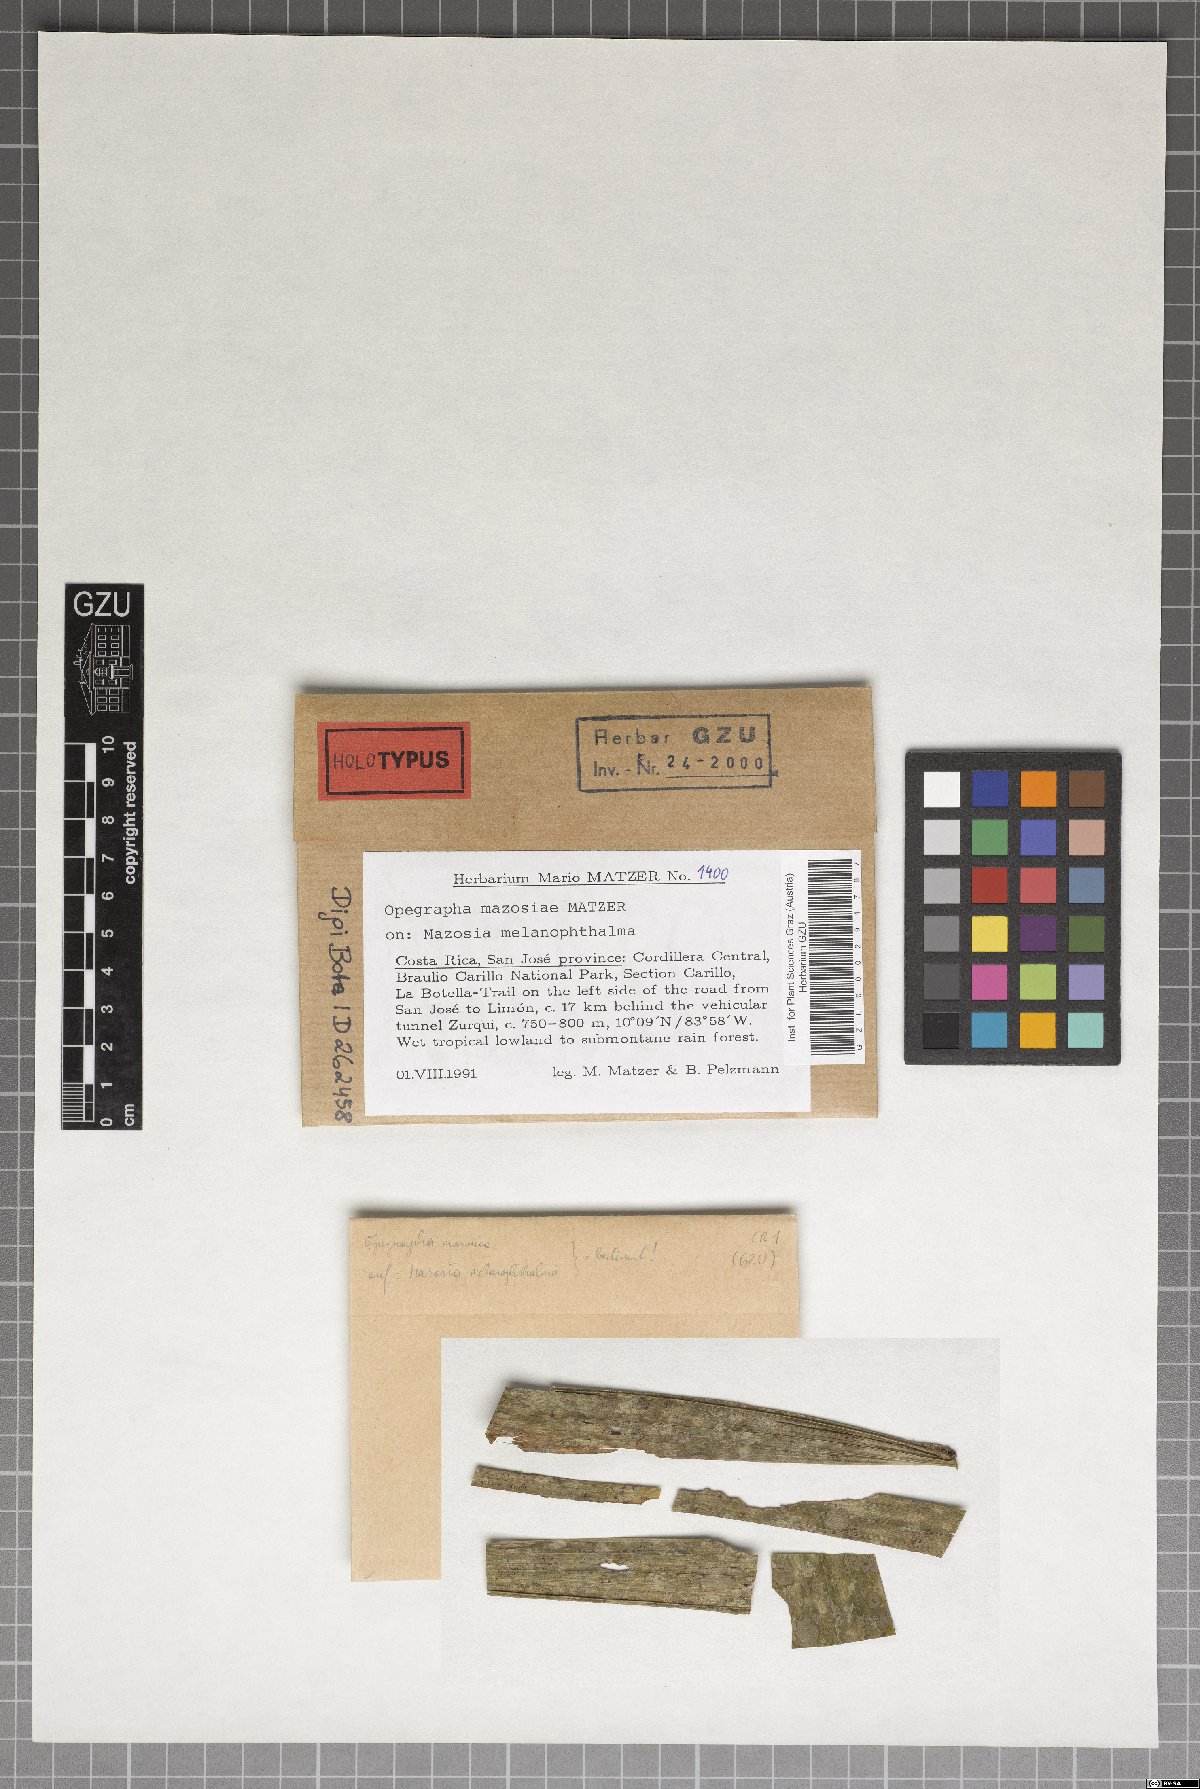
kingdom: Fungi
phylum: Ascomycota
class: Arthoniomycetes
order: Arthoniales
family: Opegraphaceae
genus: Opegrapha
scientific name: Opegrapha
